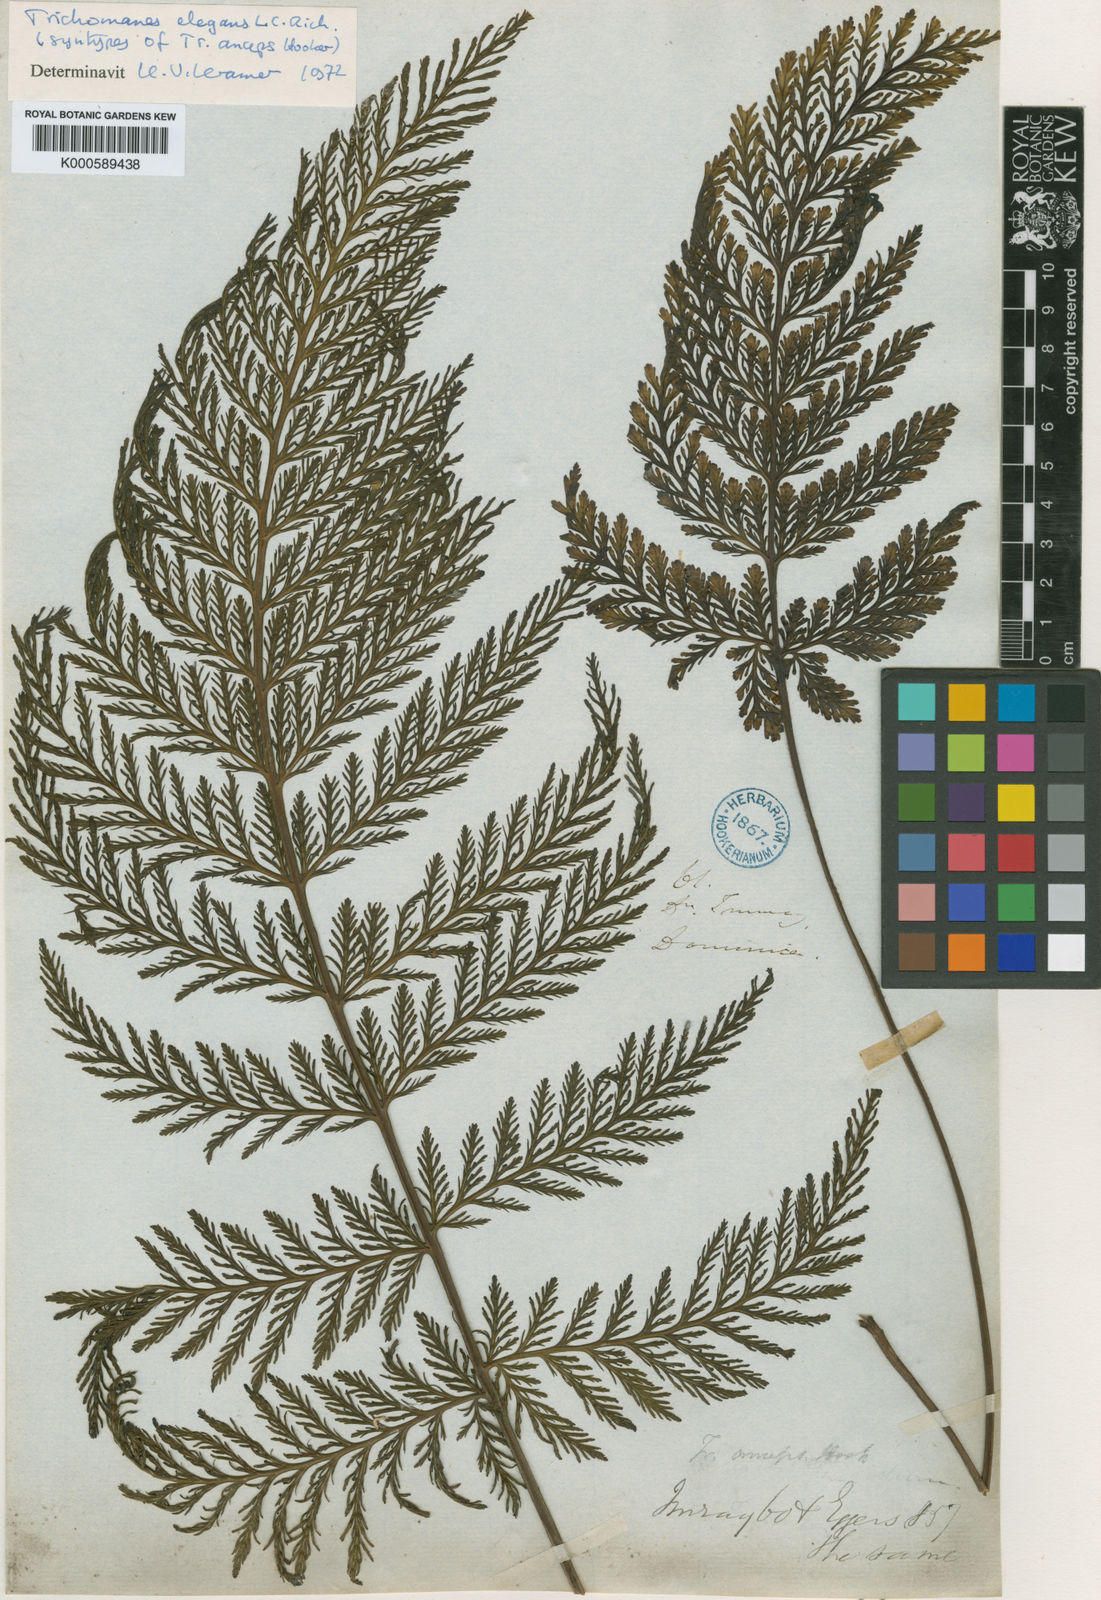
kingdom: Plantae
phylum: Tracheophyta
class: Polypodiopsida
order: Hymenophyllales
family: Hymenophyllaceae
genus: Trichomanes
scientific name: Trichomanes elegans
